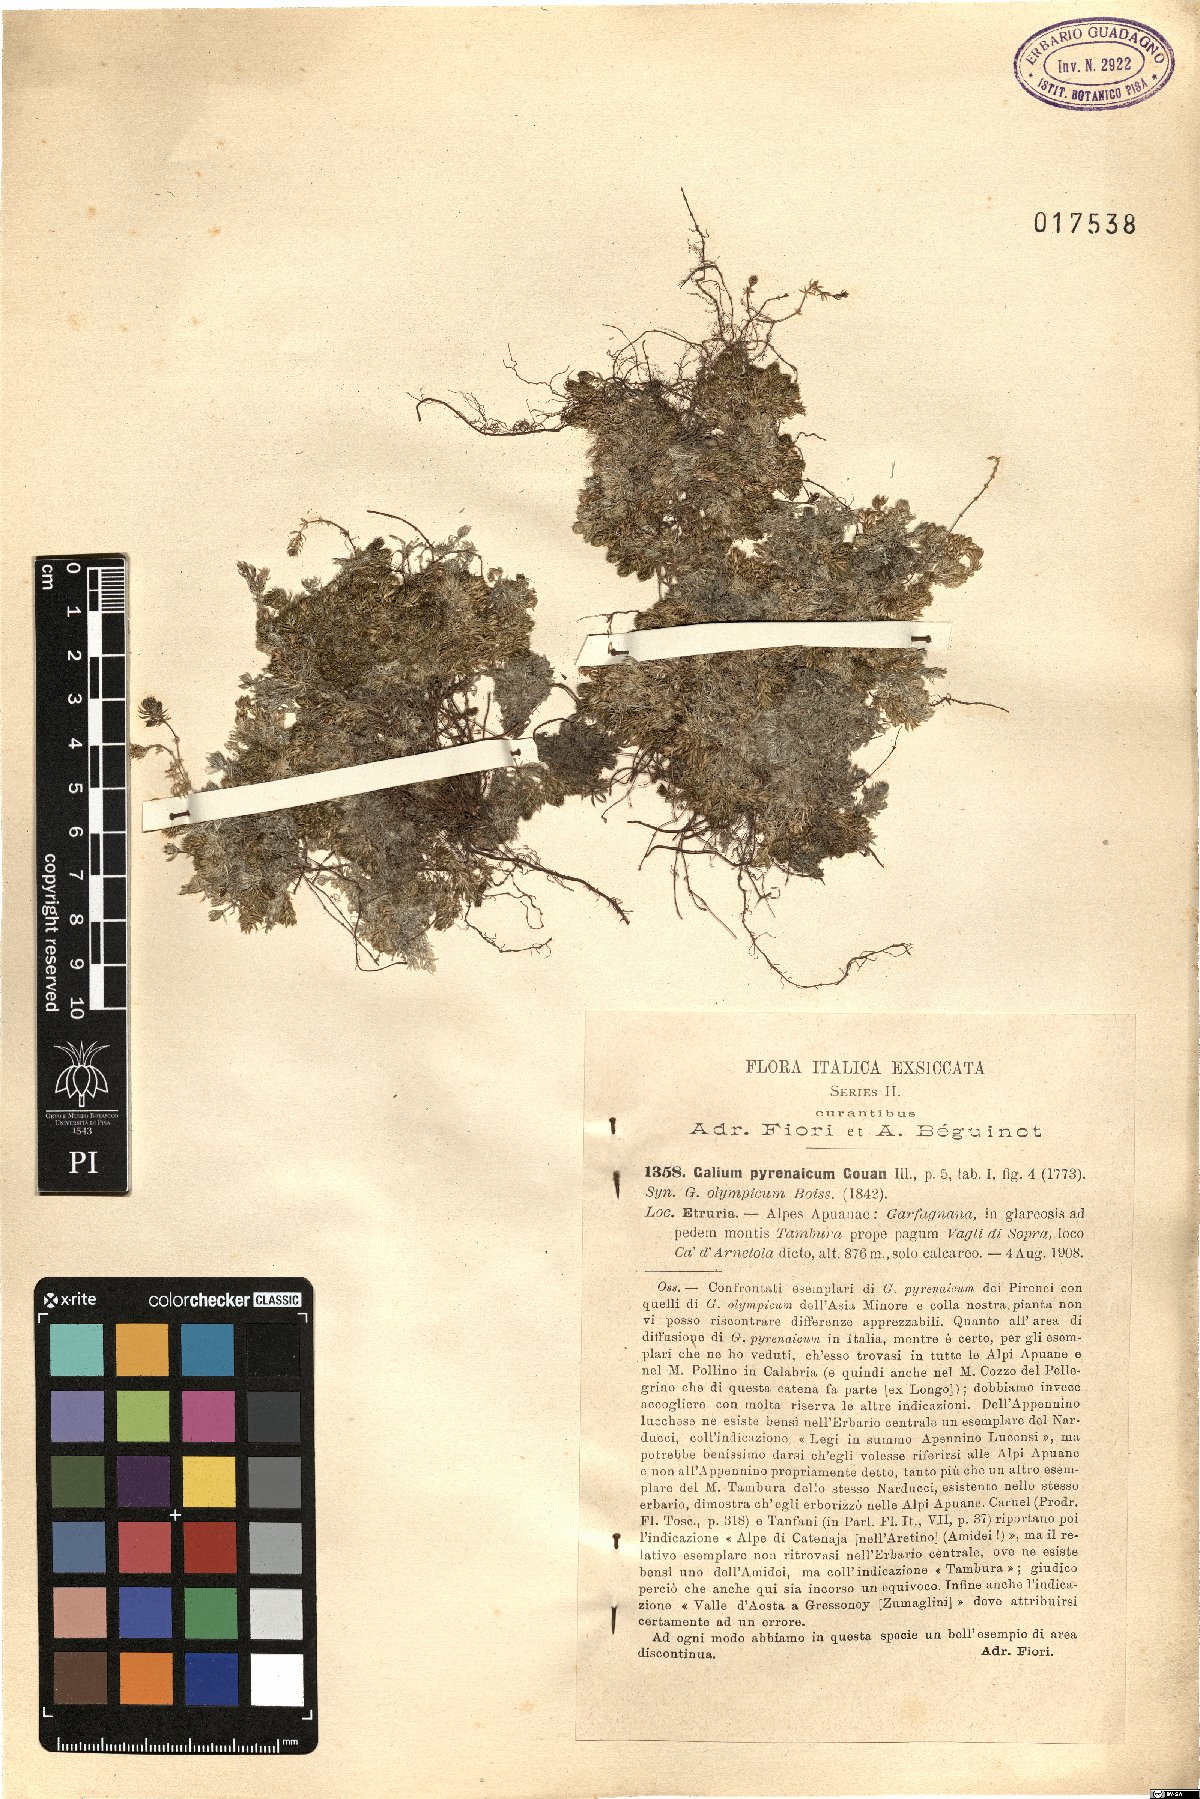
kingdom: Plantae
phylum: Tracheophyta
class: Magnoliopsida
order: Gentianales
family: Rubiaceae
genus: Galium
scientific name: Galium pyrenaicum
